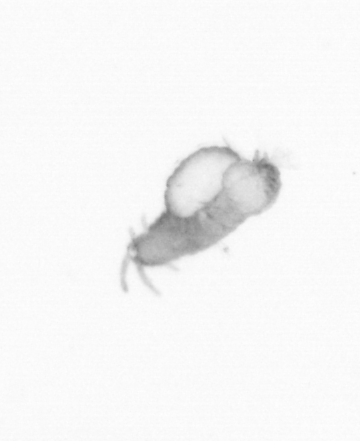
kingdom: Animalia
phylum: Annelida
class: Polychaeta
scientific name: Polychaeta
